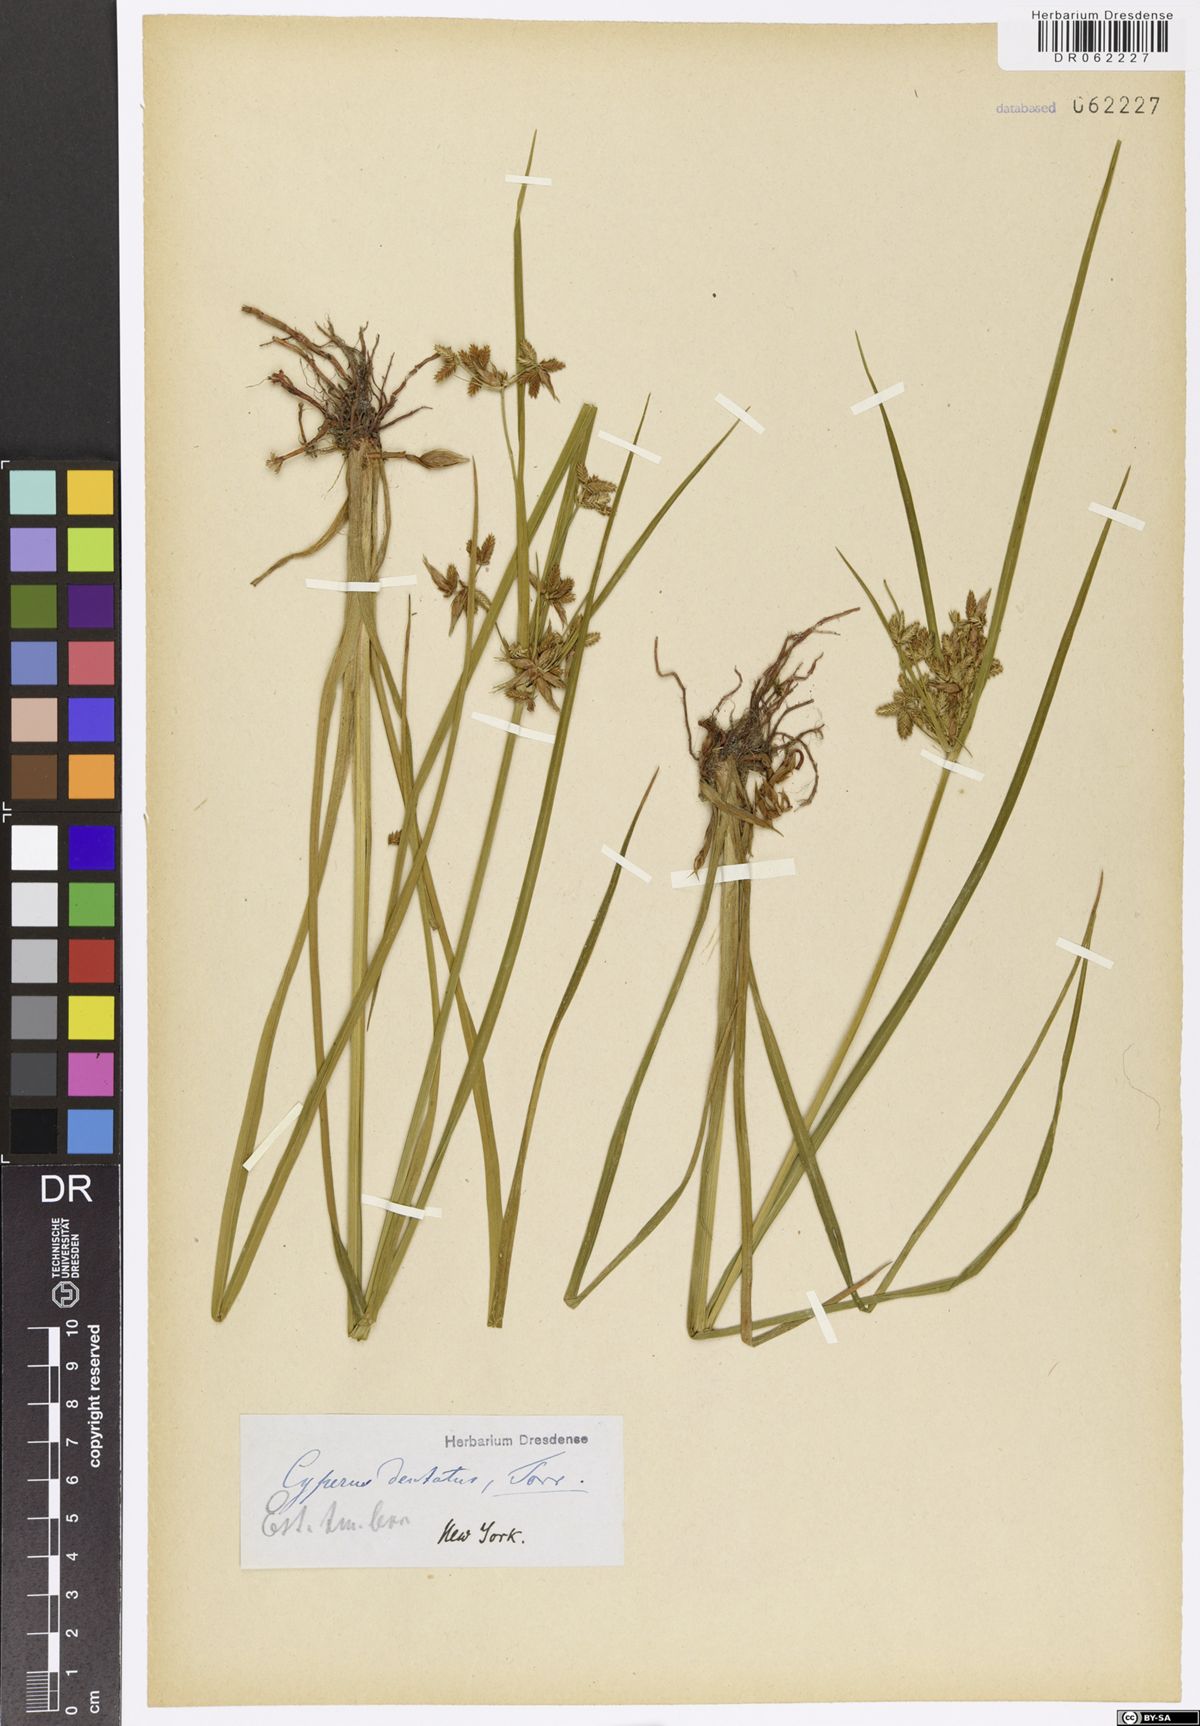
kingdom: Plantae
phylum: Tracheophyta
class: Liliopsida
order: Poales
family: Cyperaceae
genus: Cyperus
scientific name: Cyperus dentatus
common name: Dentate umbrella sedge
